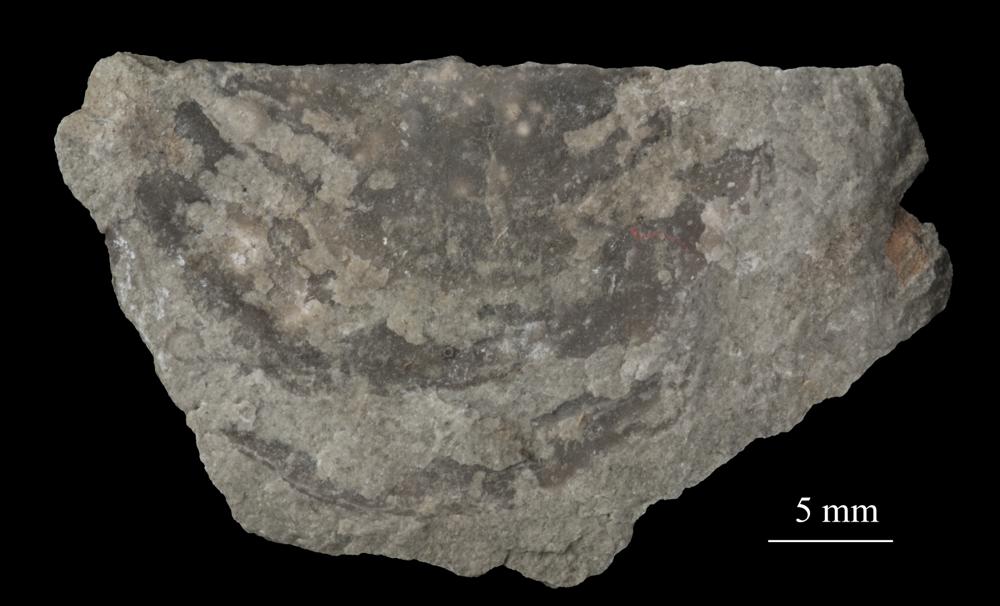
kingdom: Animalia
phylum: Brachiopoda
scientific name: Brachiopoda
